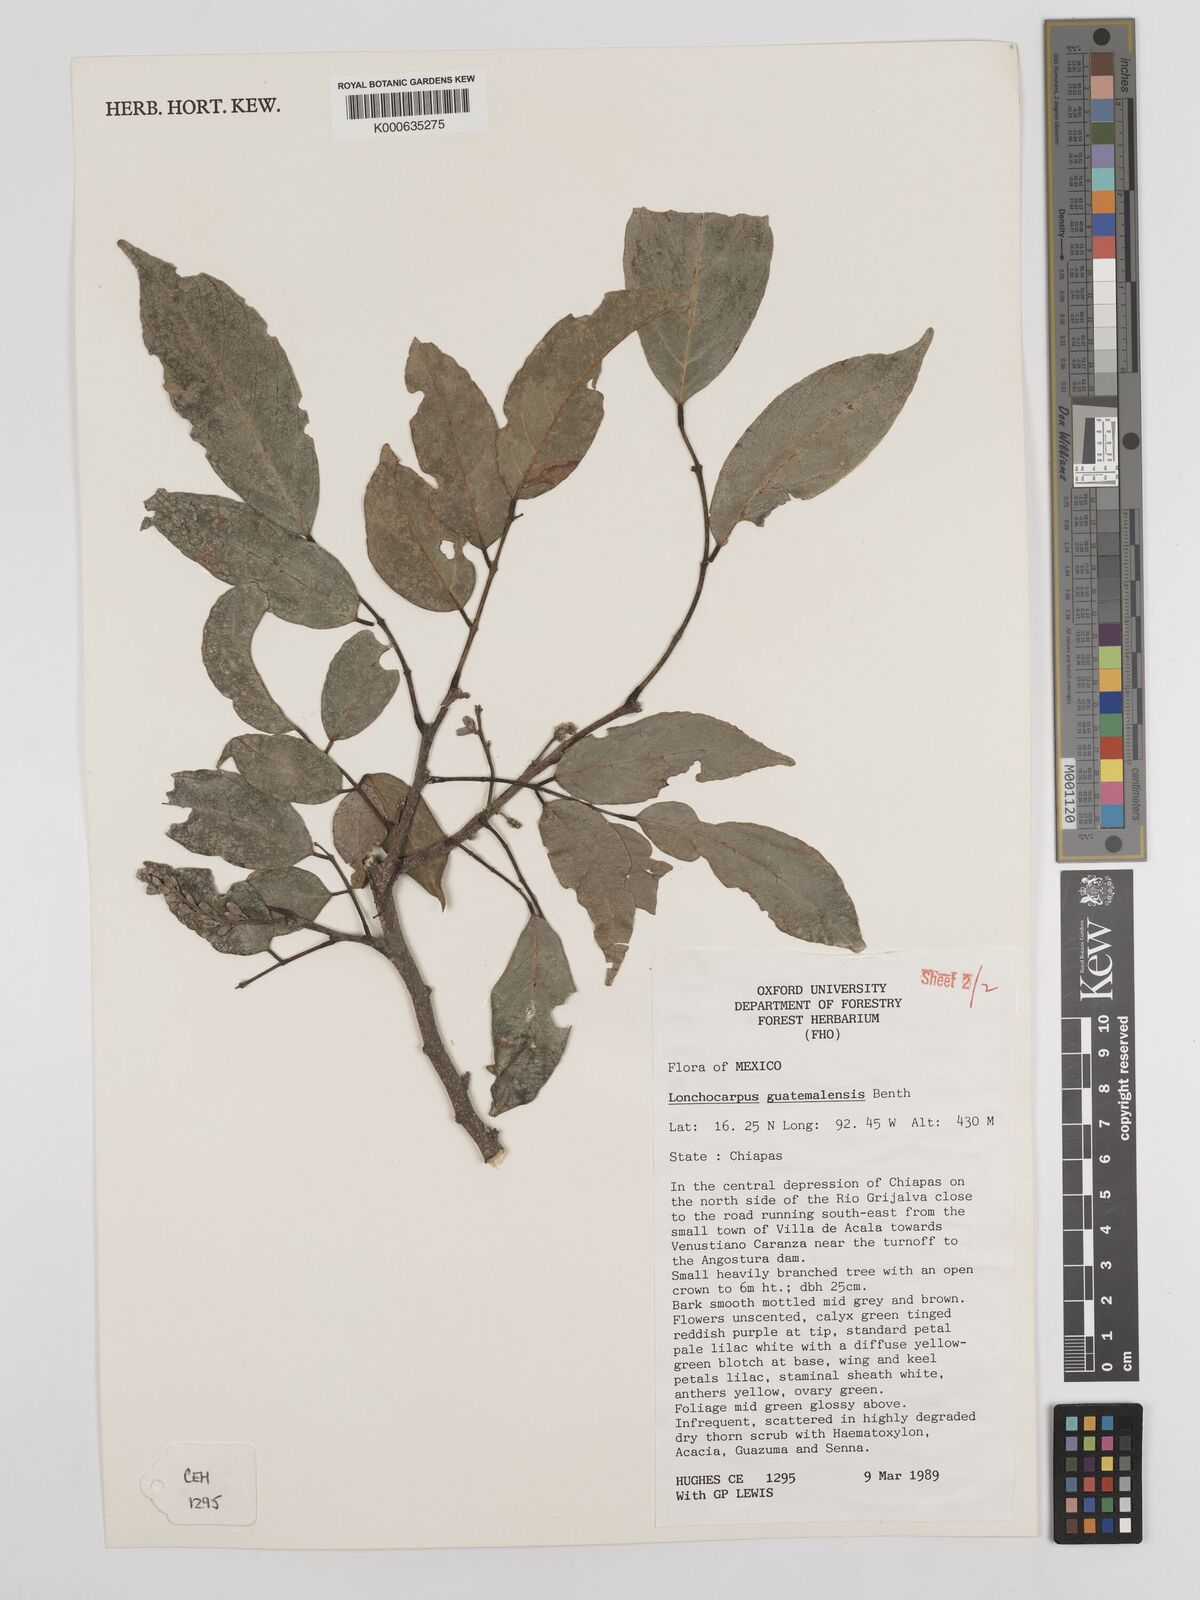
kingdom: Plantae
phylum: Tracheophyta
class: Magnoliopsida
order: Fabales
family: Fabaceae
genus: Lonchocarpus
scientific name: Lonchocarpus guatemalensis
